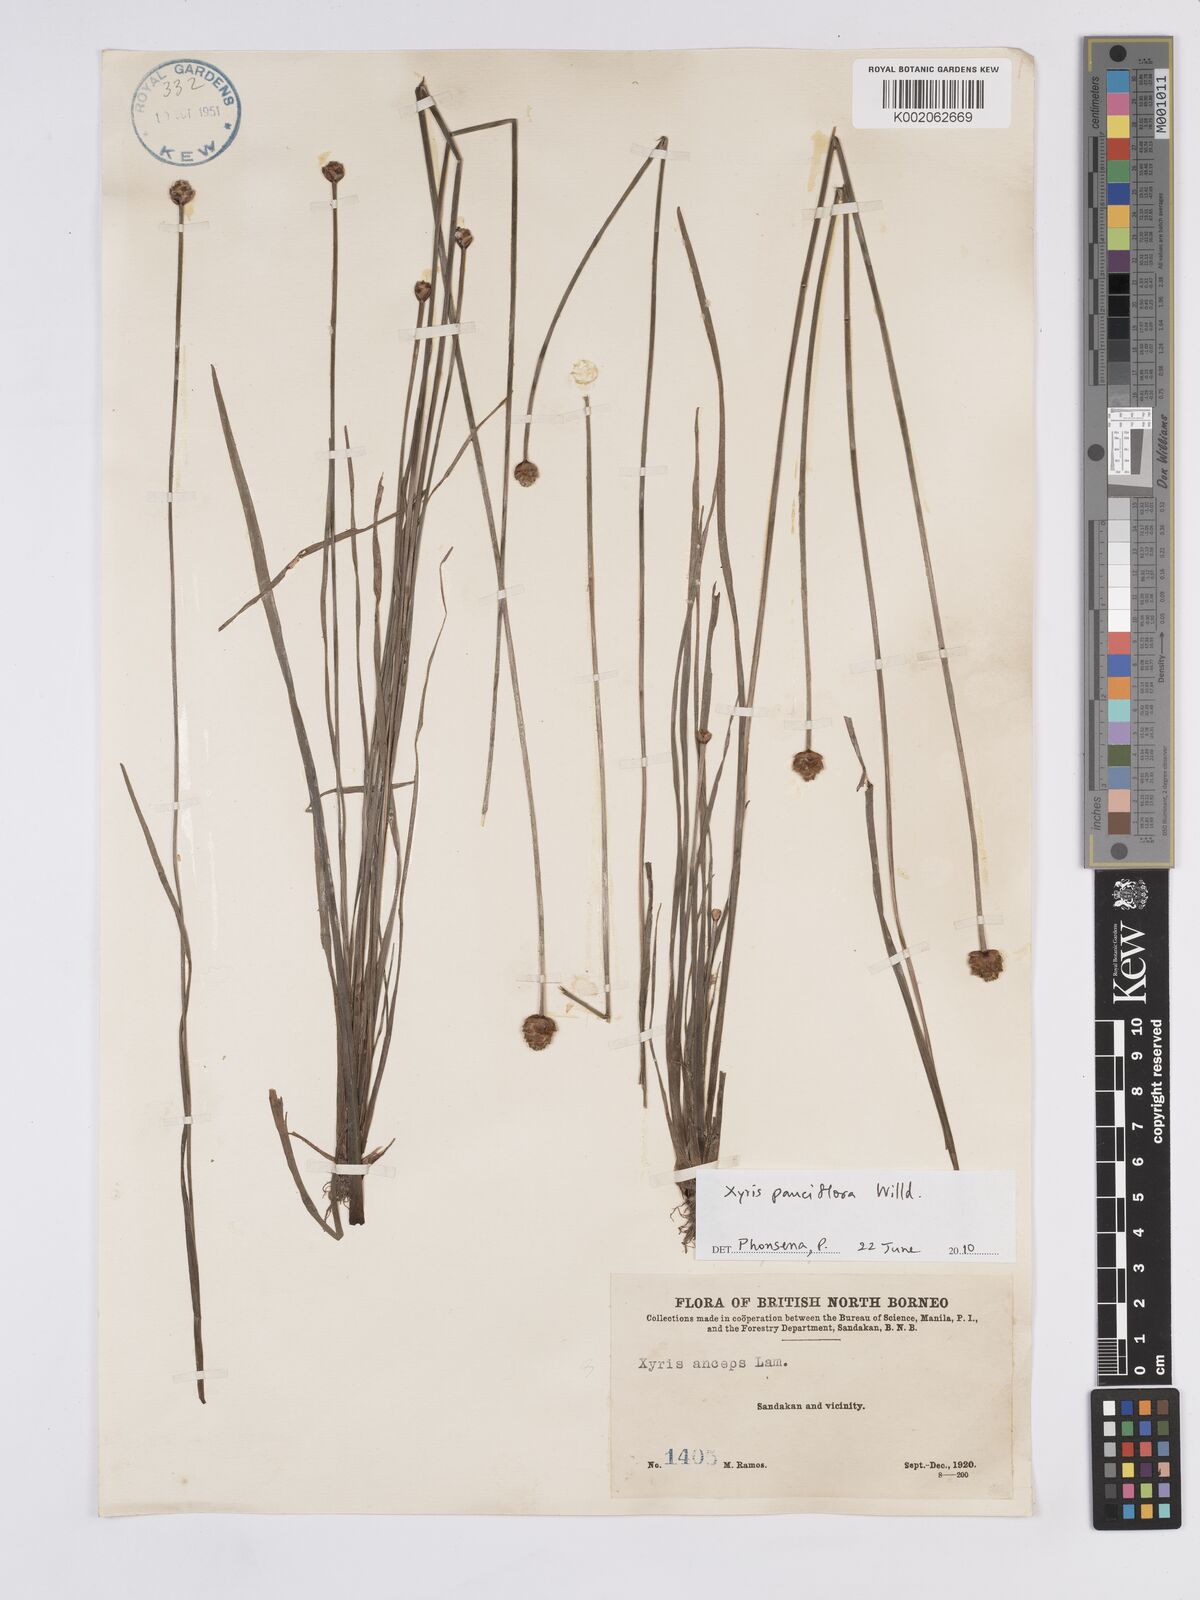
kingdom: Plantae
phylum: Tracheophyta
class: Liliopsida
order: Poales
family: Xyridaceae
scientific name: Xyridaceae
